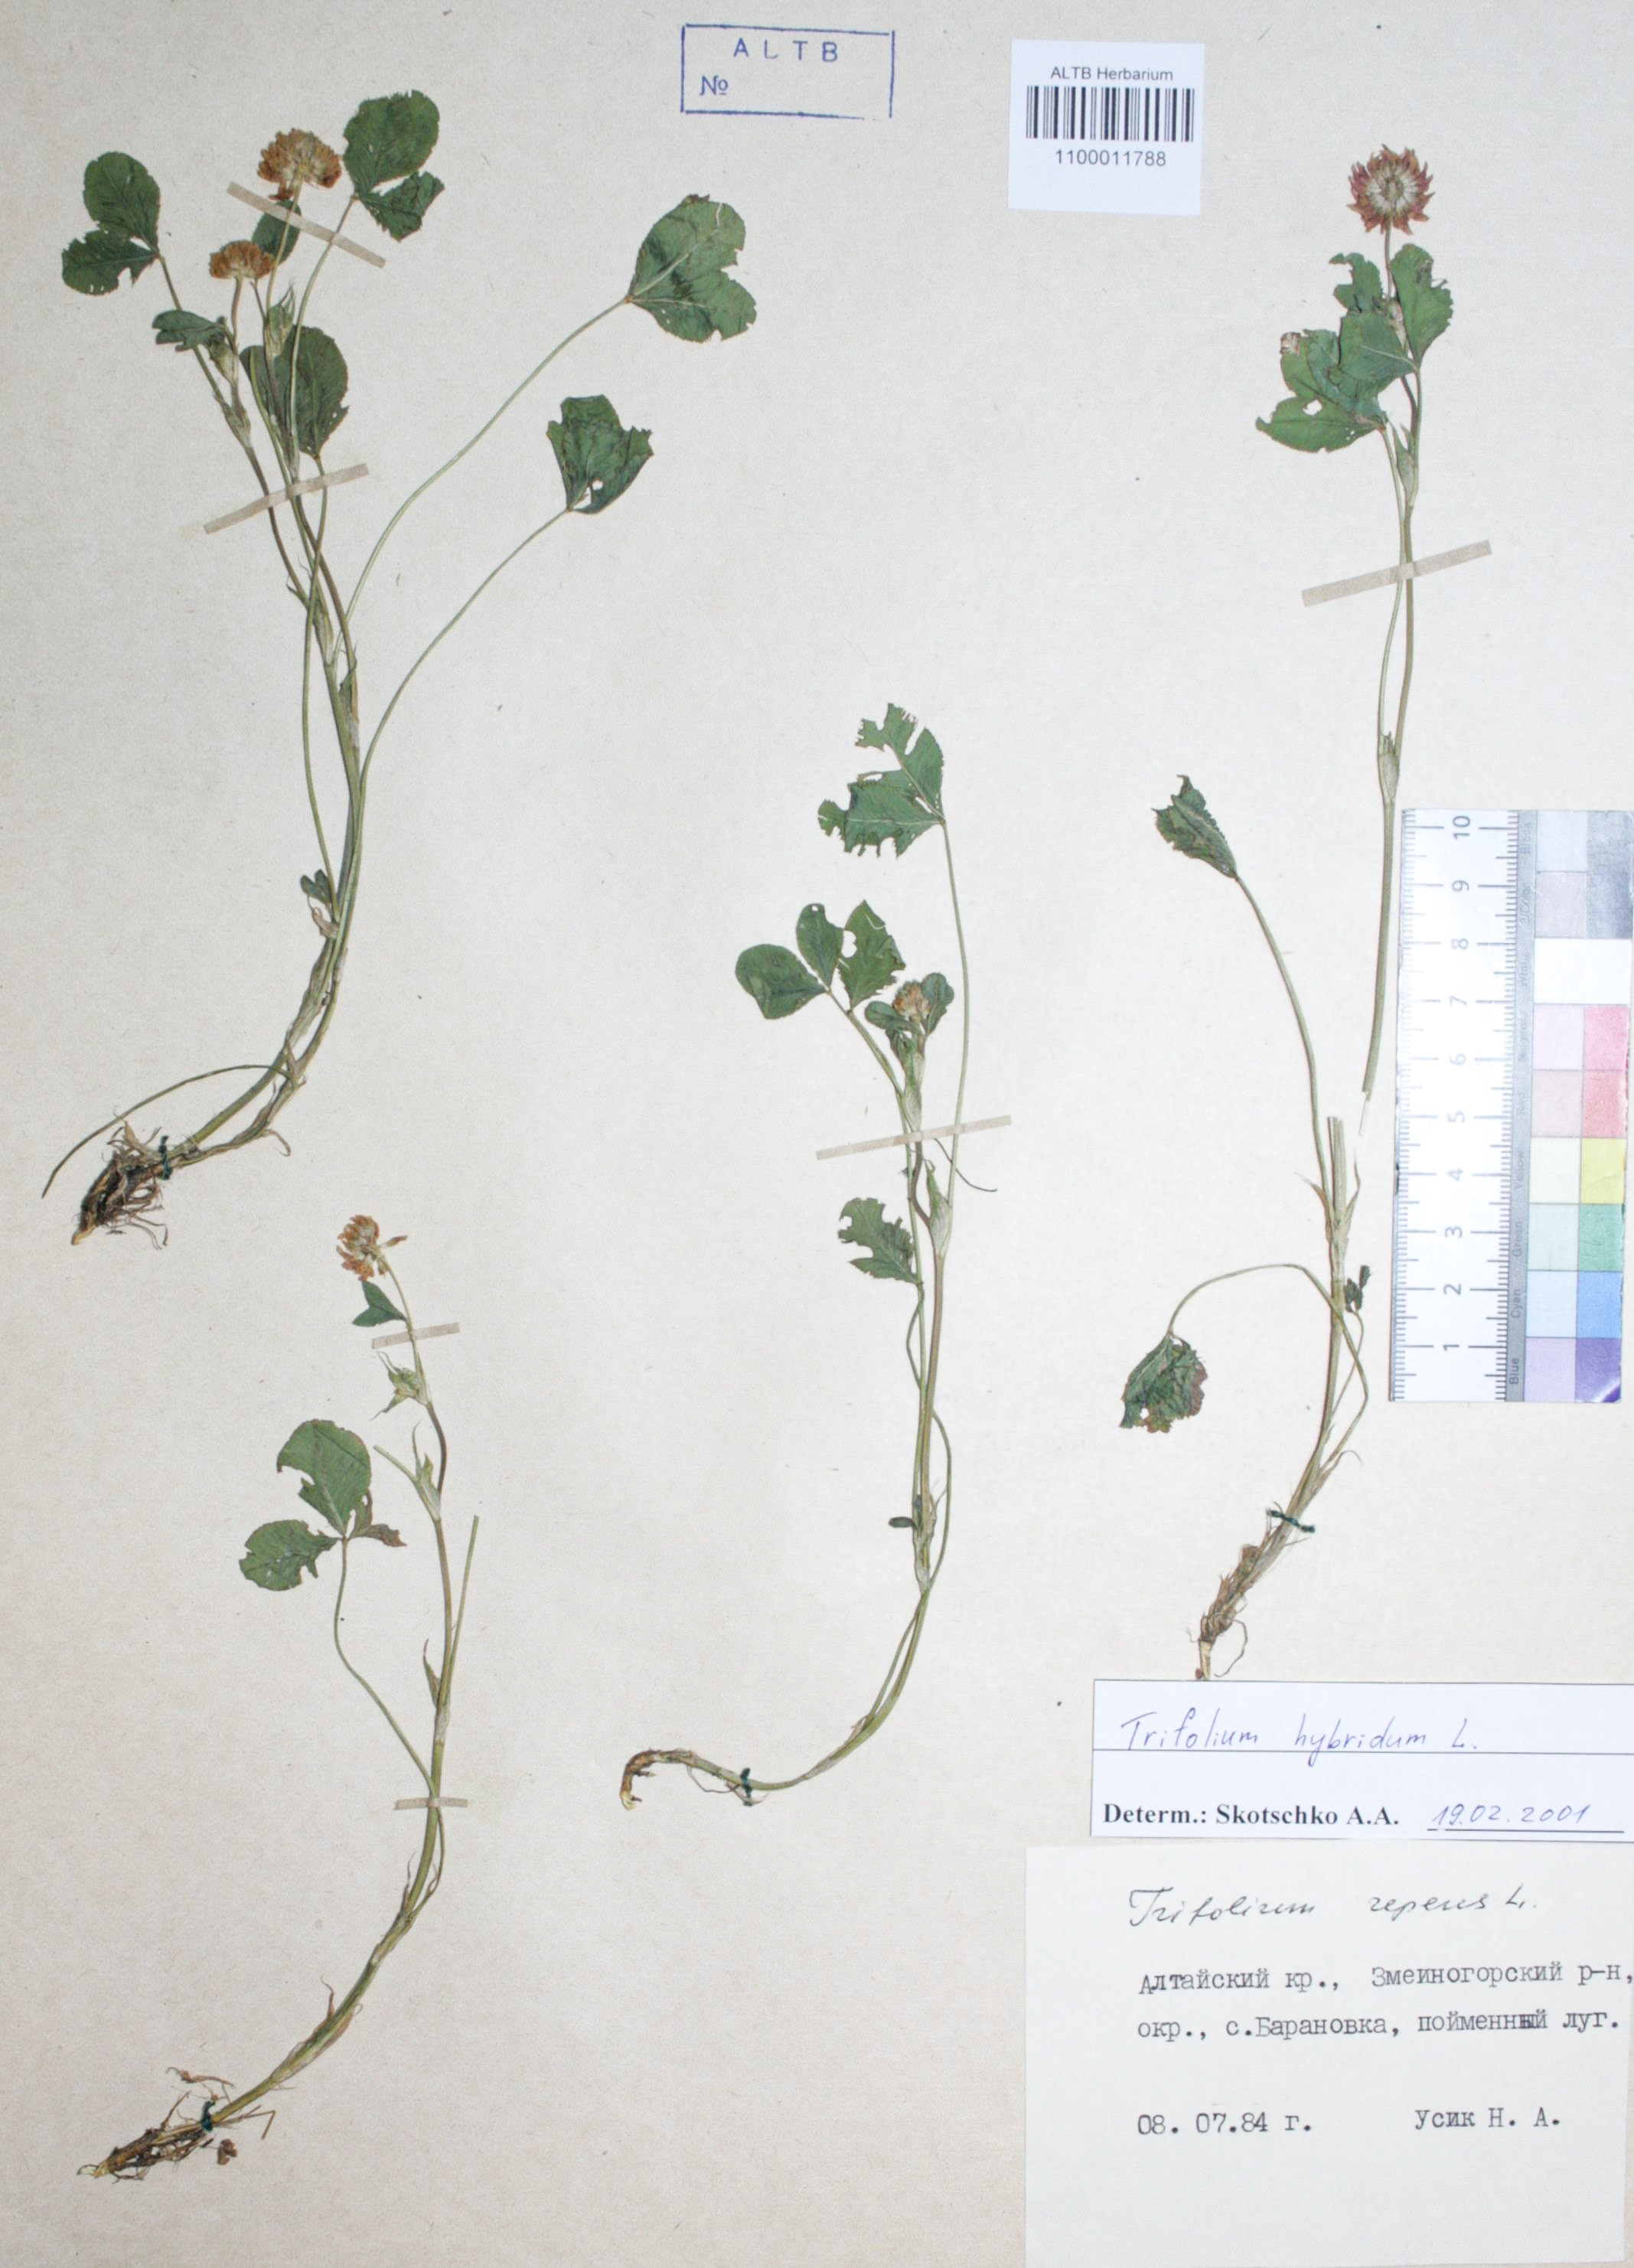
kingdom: Plantae
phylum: Tracheophyta
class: Magnoliopsida
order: Fabales
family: Fabaceae
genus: Trifolium
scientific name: Trifolium hybridum
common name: Alsike clover
